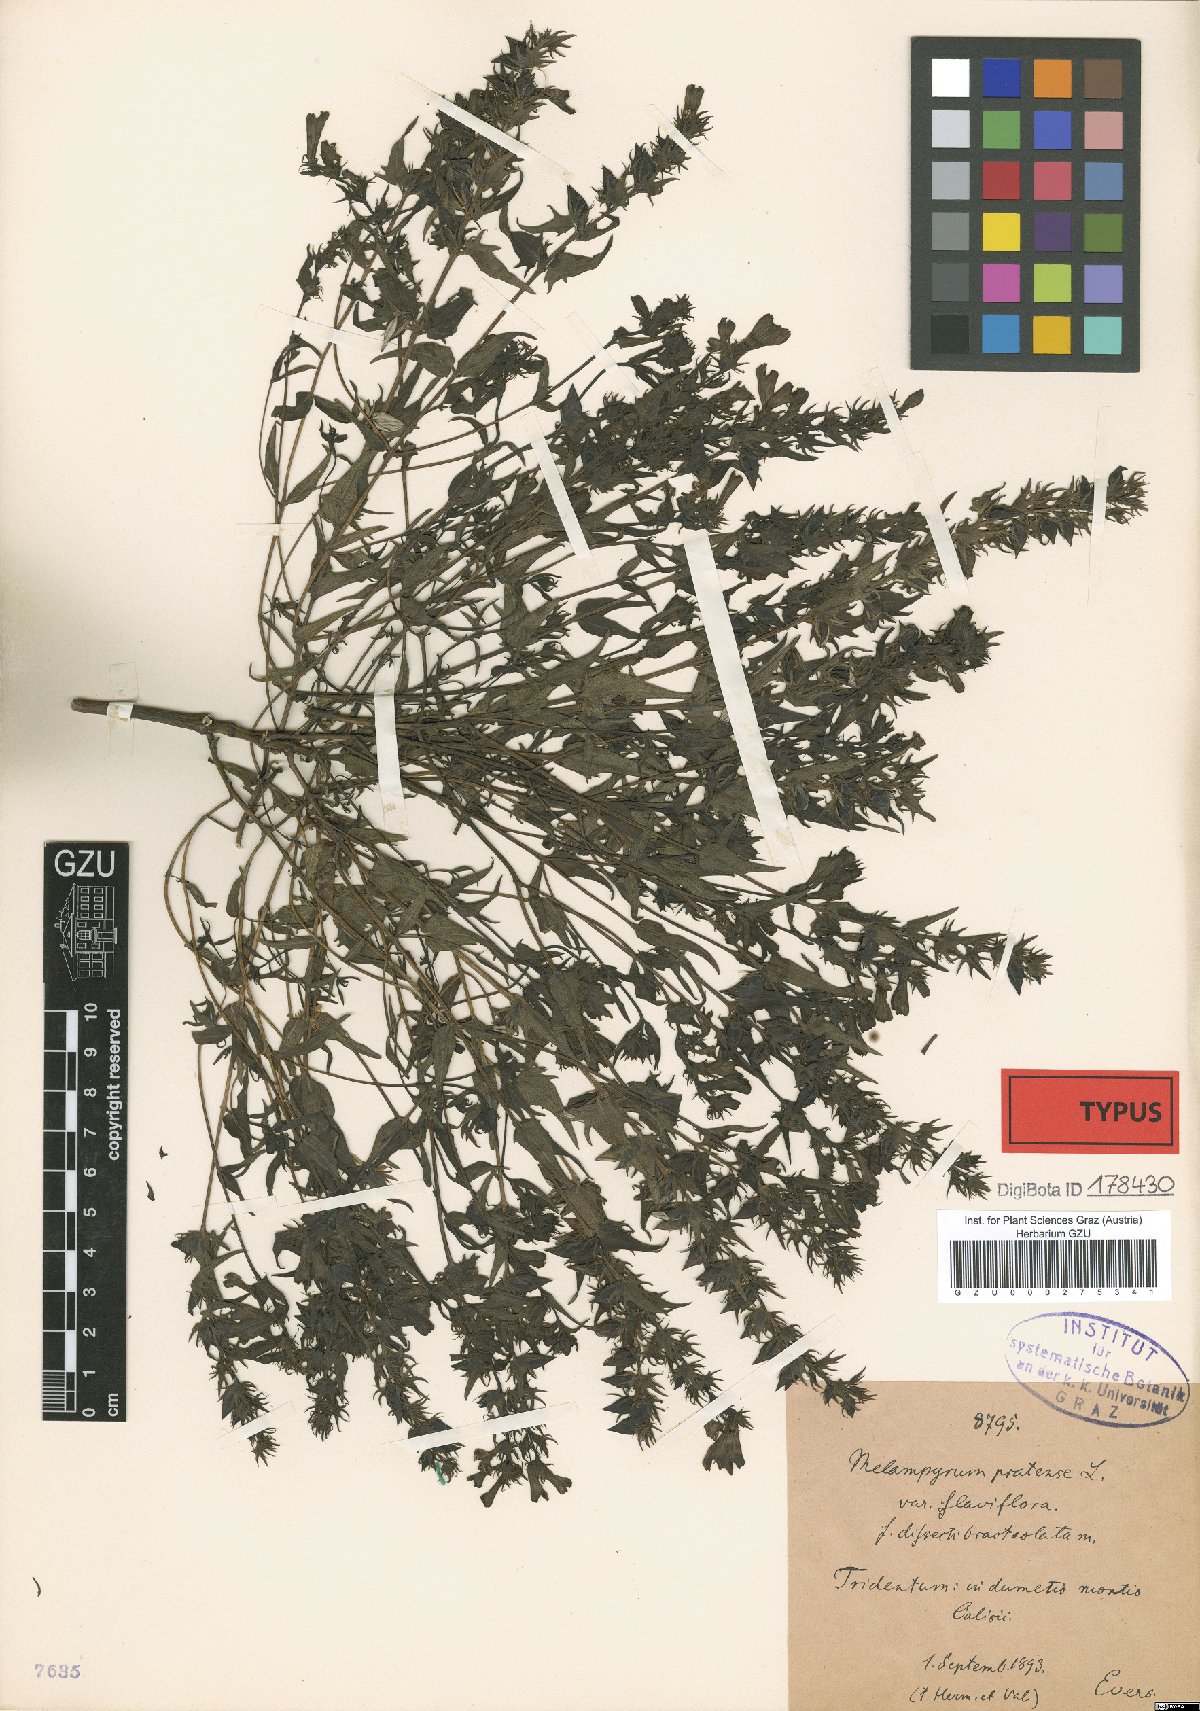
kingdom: Plantae
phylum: Tracheophyta
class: Magnoliopsida
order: Lamiales
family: Orobanchaceae
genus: Melampyrum
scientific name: Melampyrum pratense
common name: Common cow-wheat
